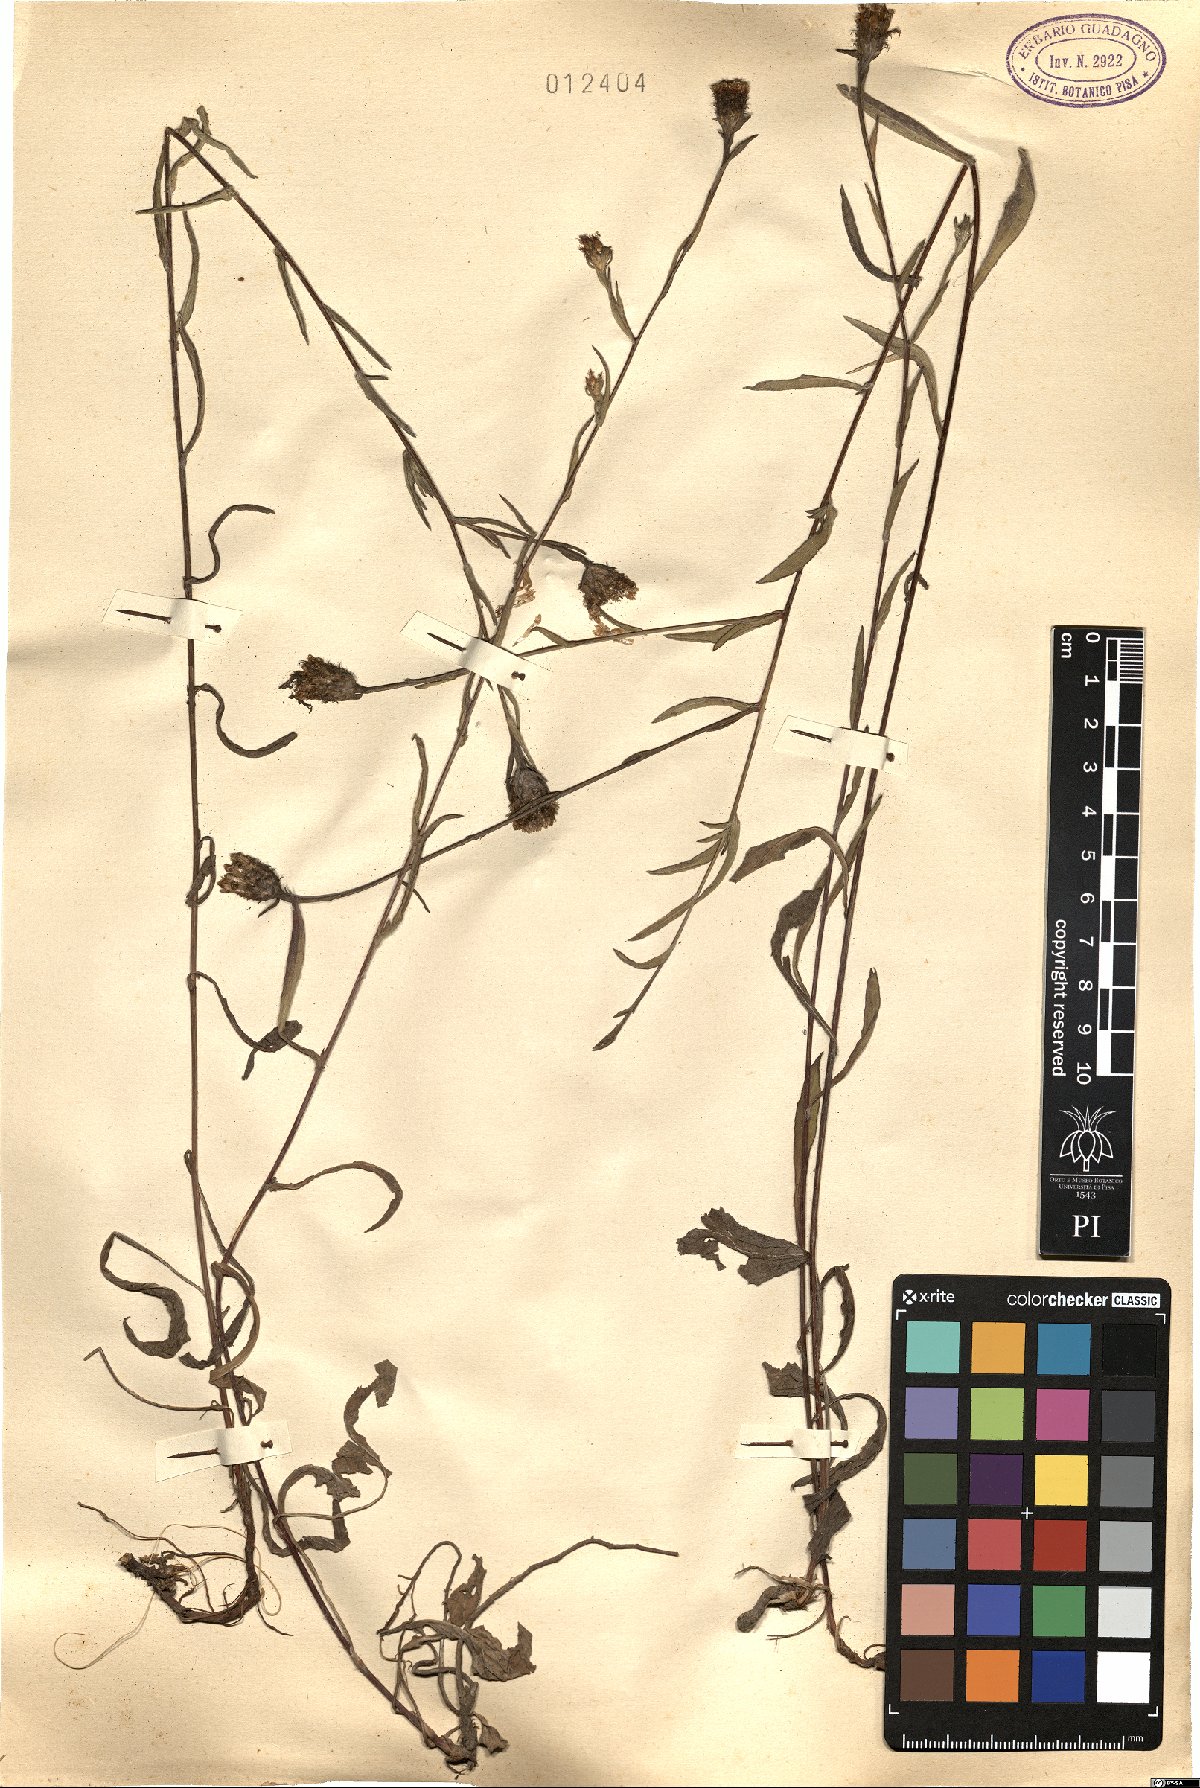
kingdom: Plantae
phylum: Tracheophyta
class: Magnoliopsida
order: Asterales
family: Asteraceae
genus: Centaurea
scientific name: Centaurea
